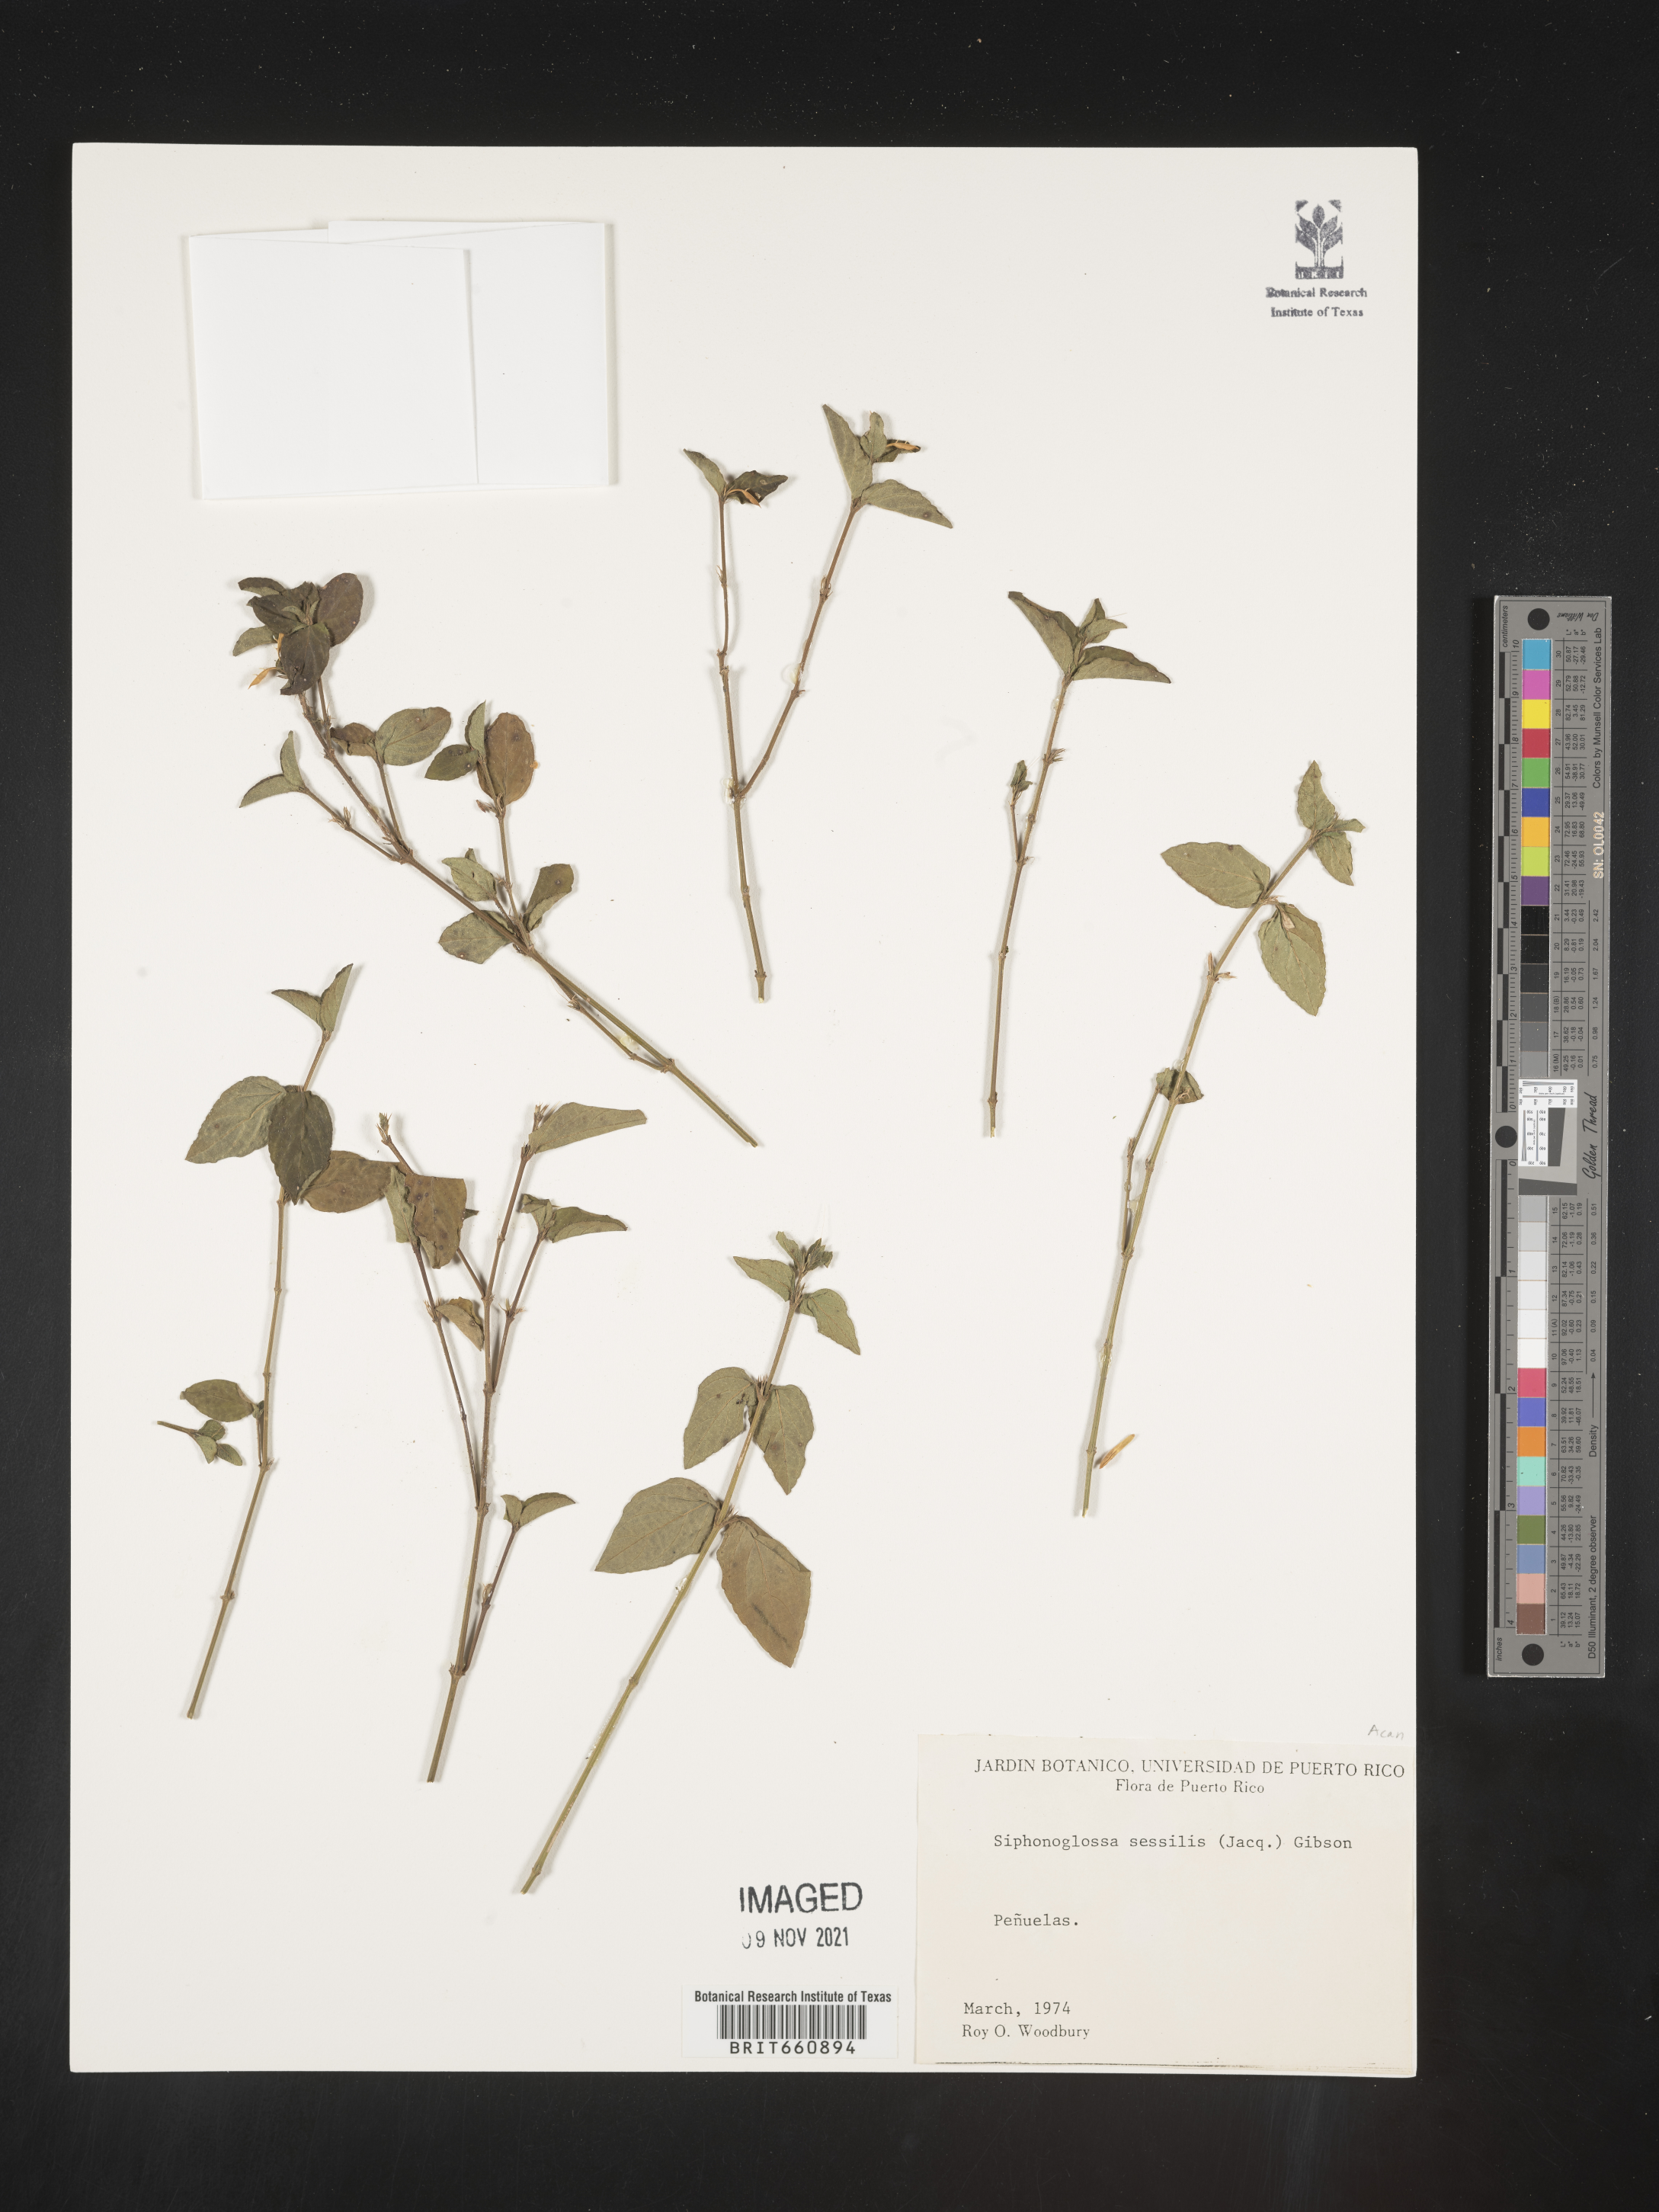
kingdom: Plantae
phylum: Tracheophyta
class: Magnoliopsida
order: Lamiales
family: Acanthaceae
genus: Justicia
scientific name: Justicia
